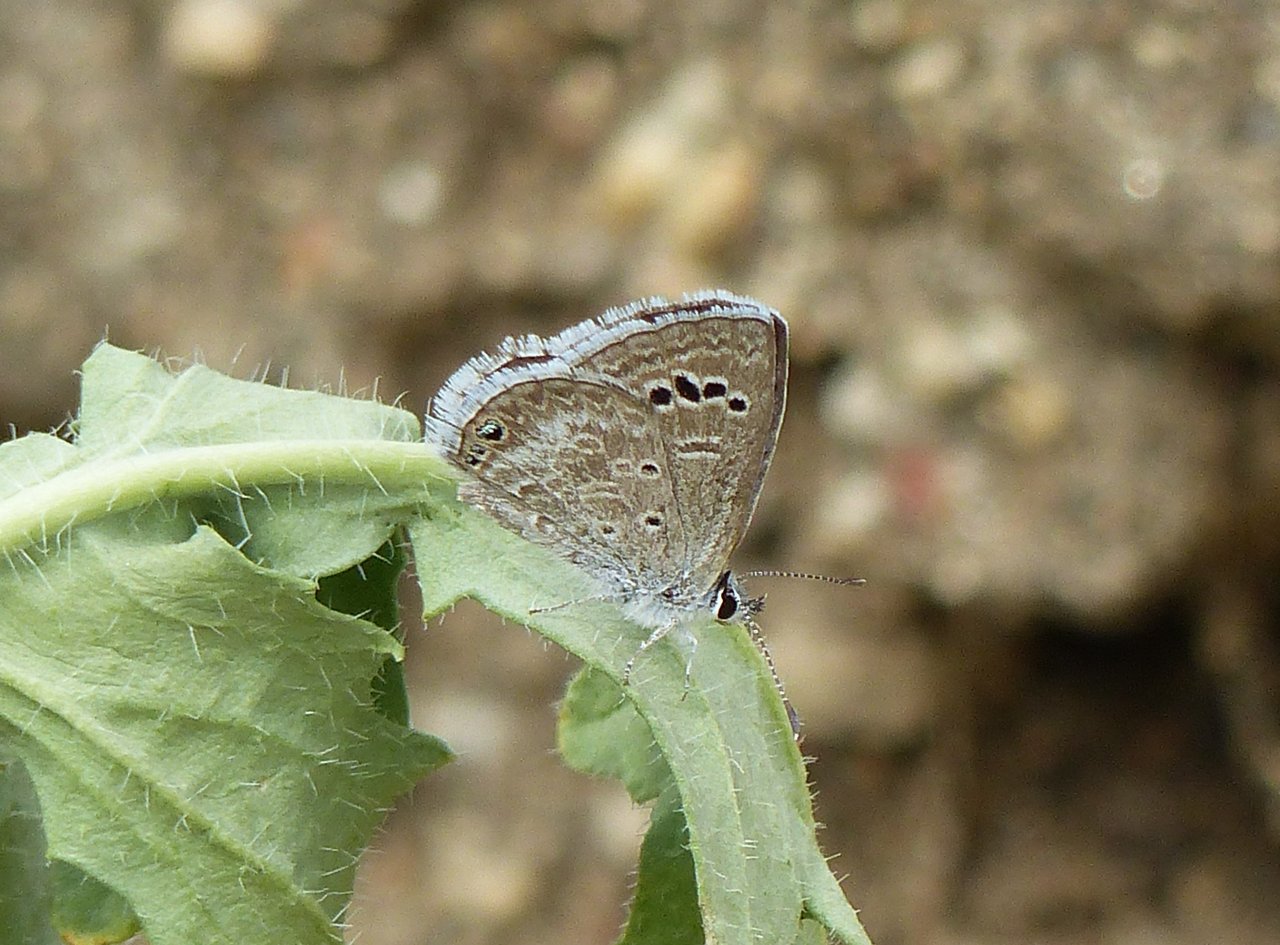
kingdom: Animalia
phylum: Arthropoda
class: Insecta
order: Lepidoptera
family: Lycaenidae
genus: Echinargus
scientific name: Echinargus isola
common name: Reakirt's Blue
